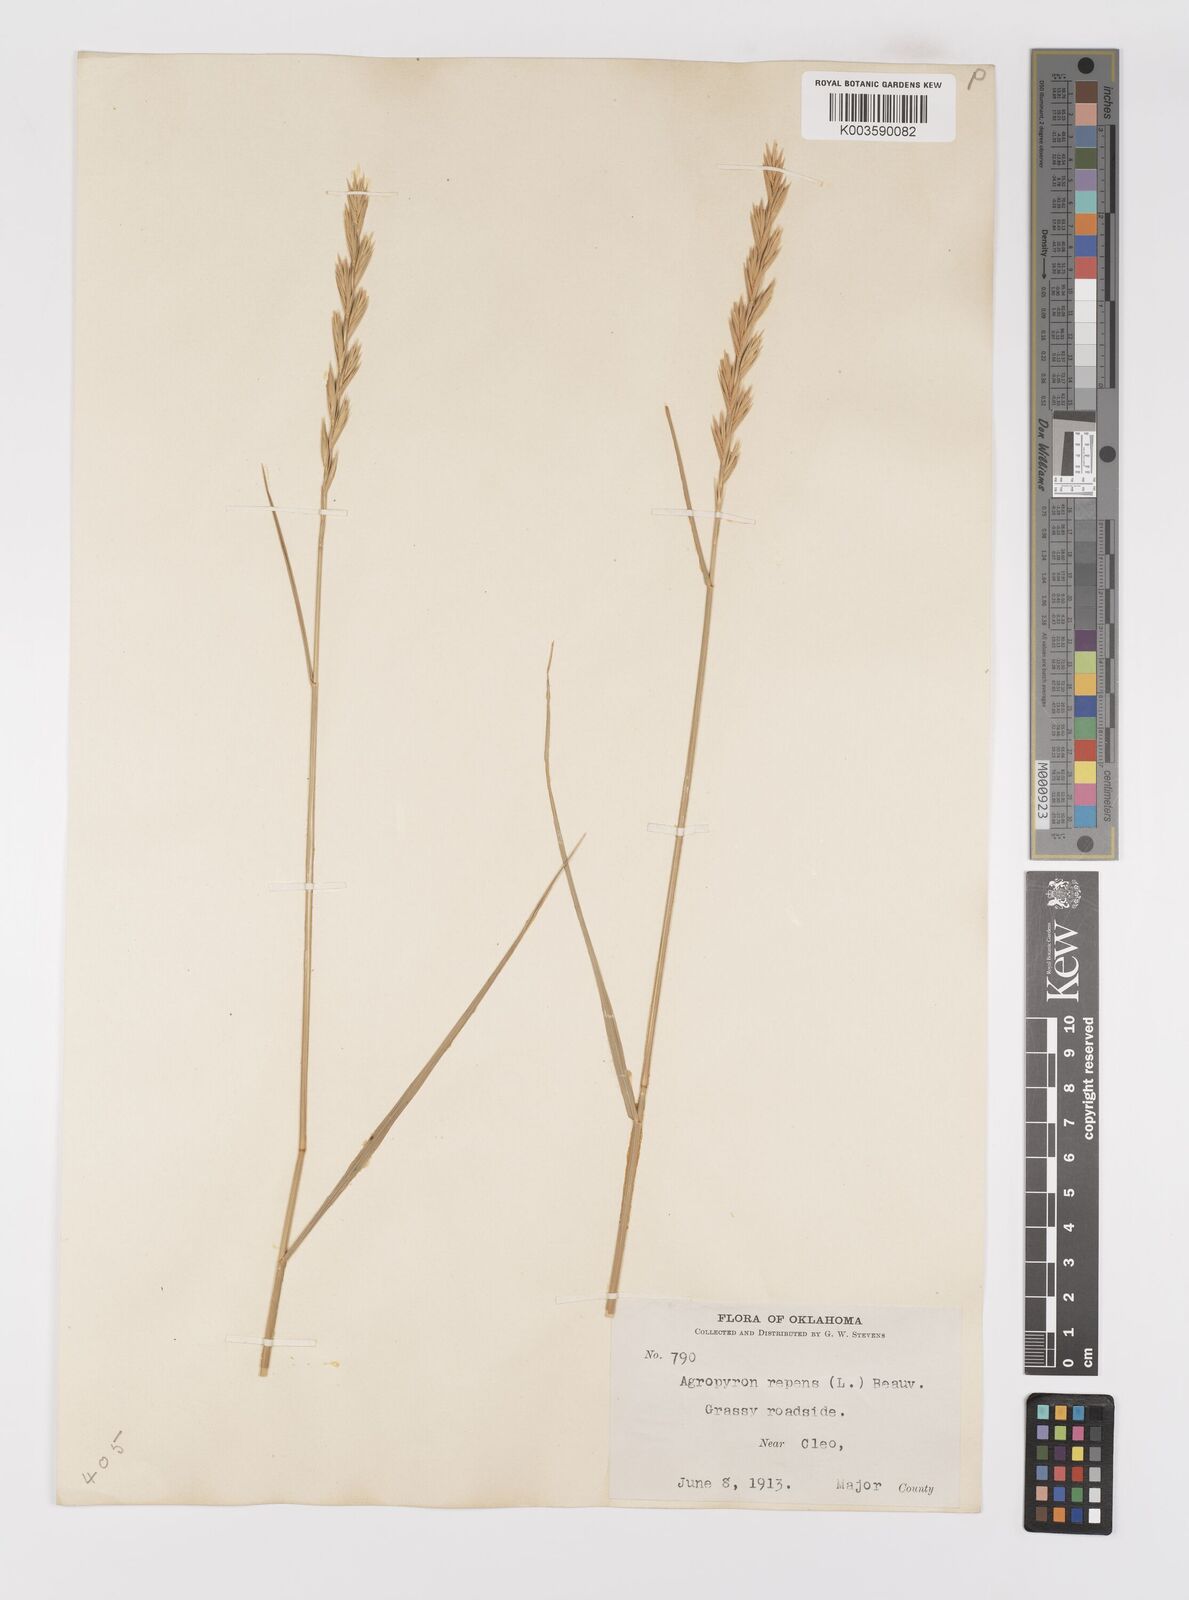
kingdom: Plantae
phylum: Tracheophyta
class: Liliopsida
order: Poales
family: Poaceae
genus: Elymus
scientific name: Elymus repens
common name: Quackgrass
